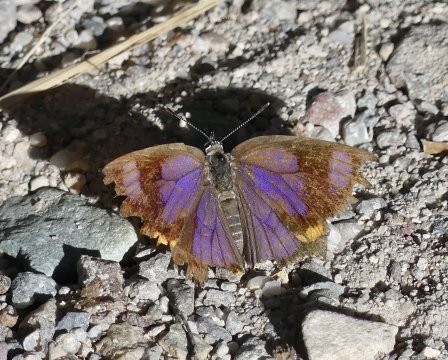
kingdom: Animalia
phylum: Arthropoda
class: Insecta
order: Lepidoptera
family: Lycaenidae
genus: Hypaurotis
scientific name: Hypaurotis crysalus
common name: Colorado Hairstreak
